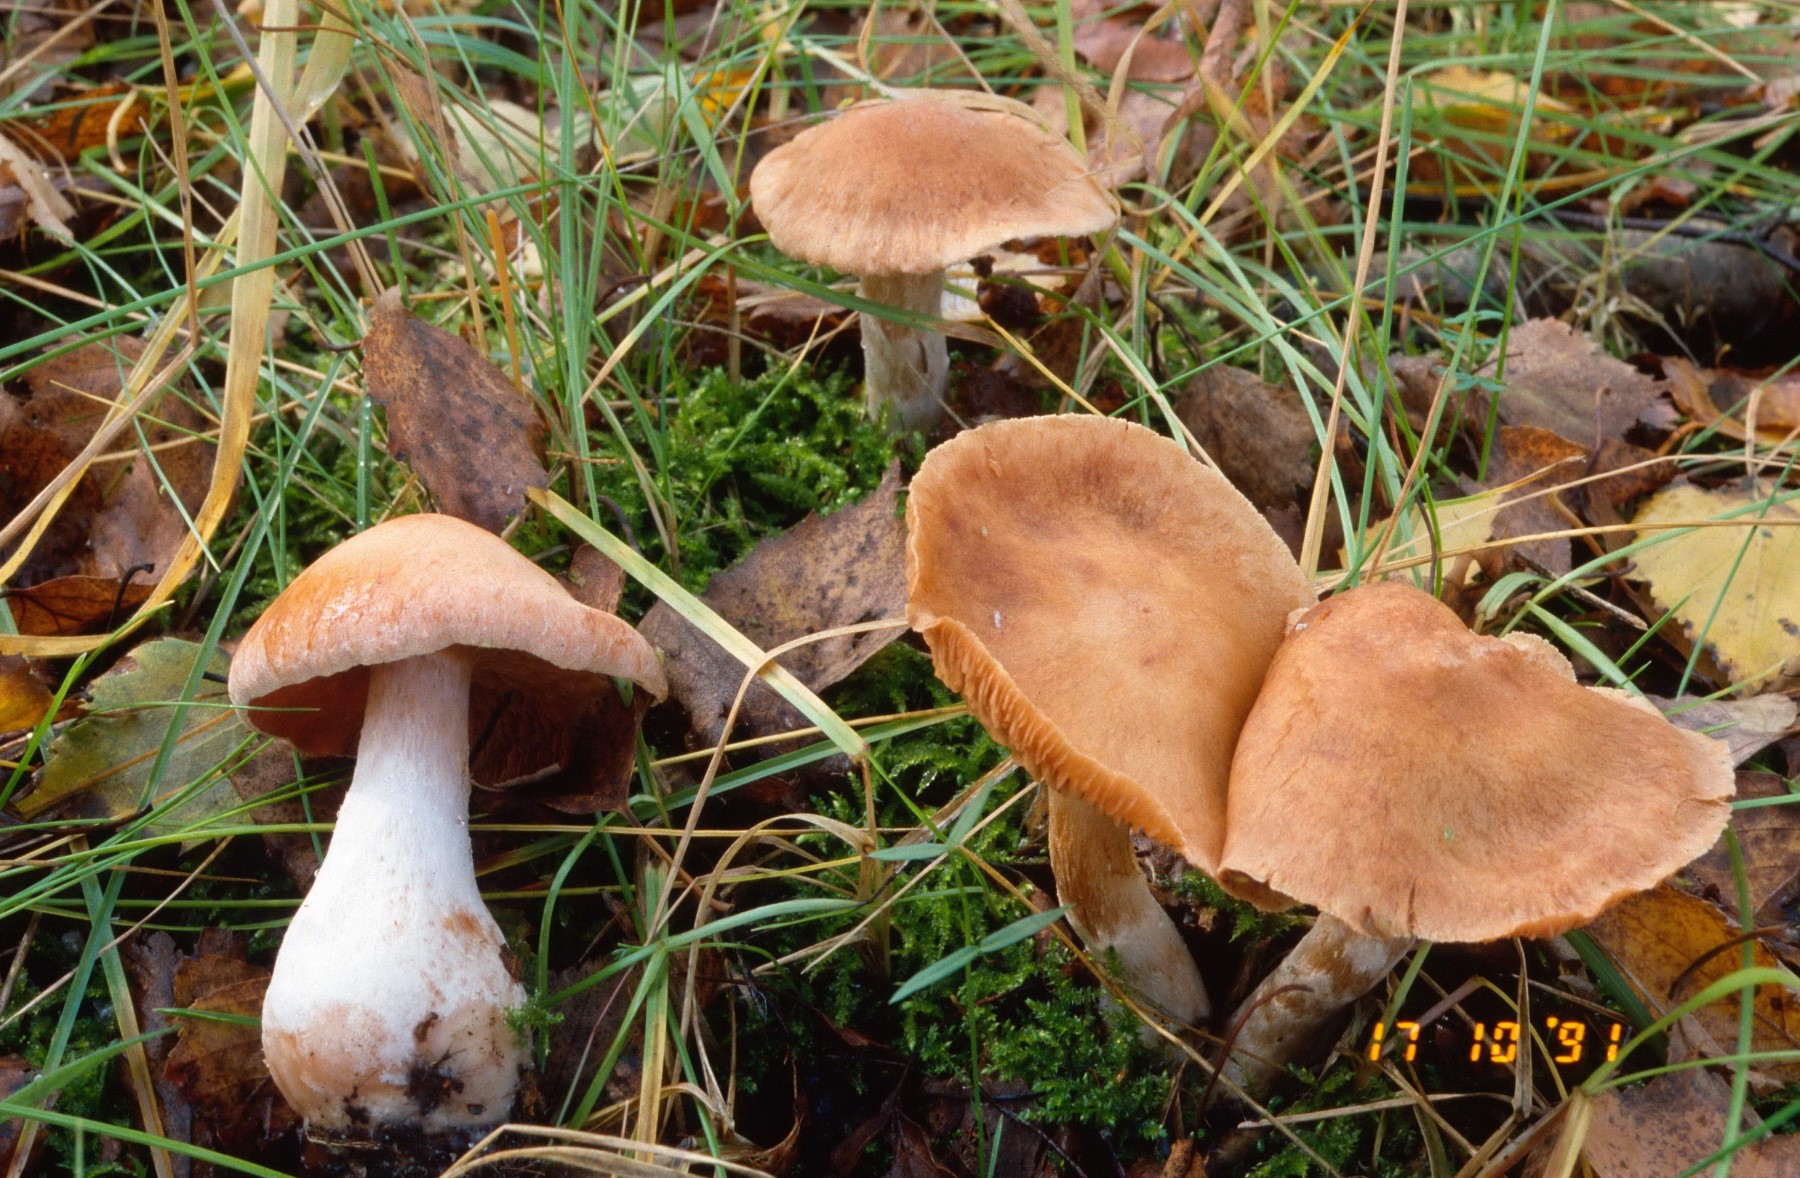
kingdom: Fungi
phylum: Basidiomycota
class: Agaricomycetes
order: Agaricales
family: Cortinariaceae
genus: Cortinarius
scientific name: Cortinarius bivelus
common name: orangebrun slørhat
